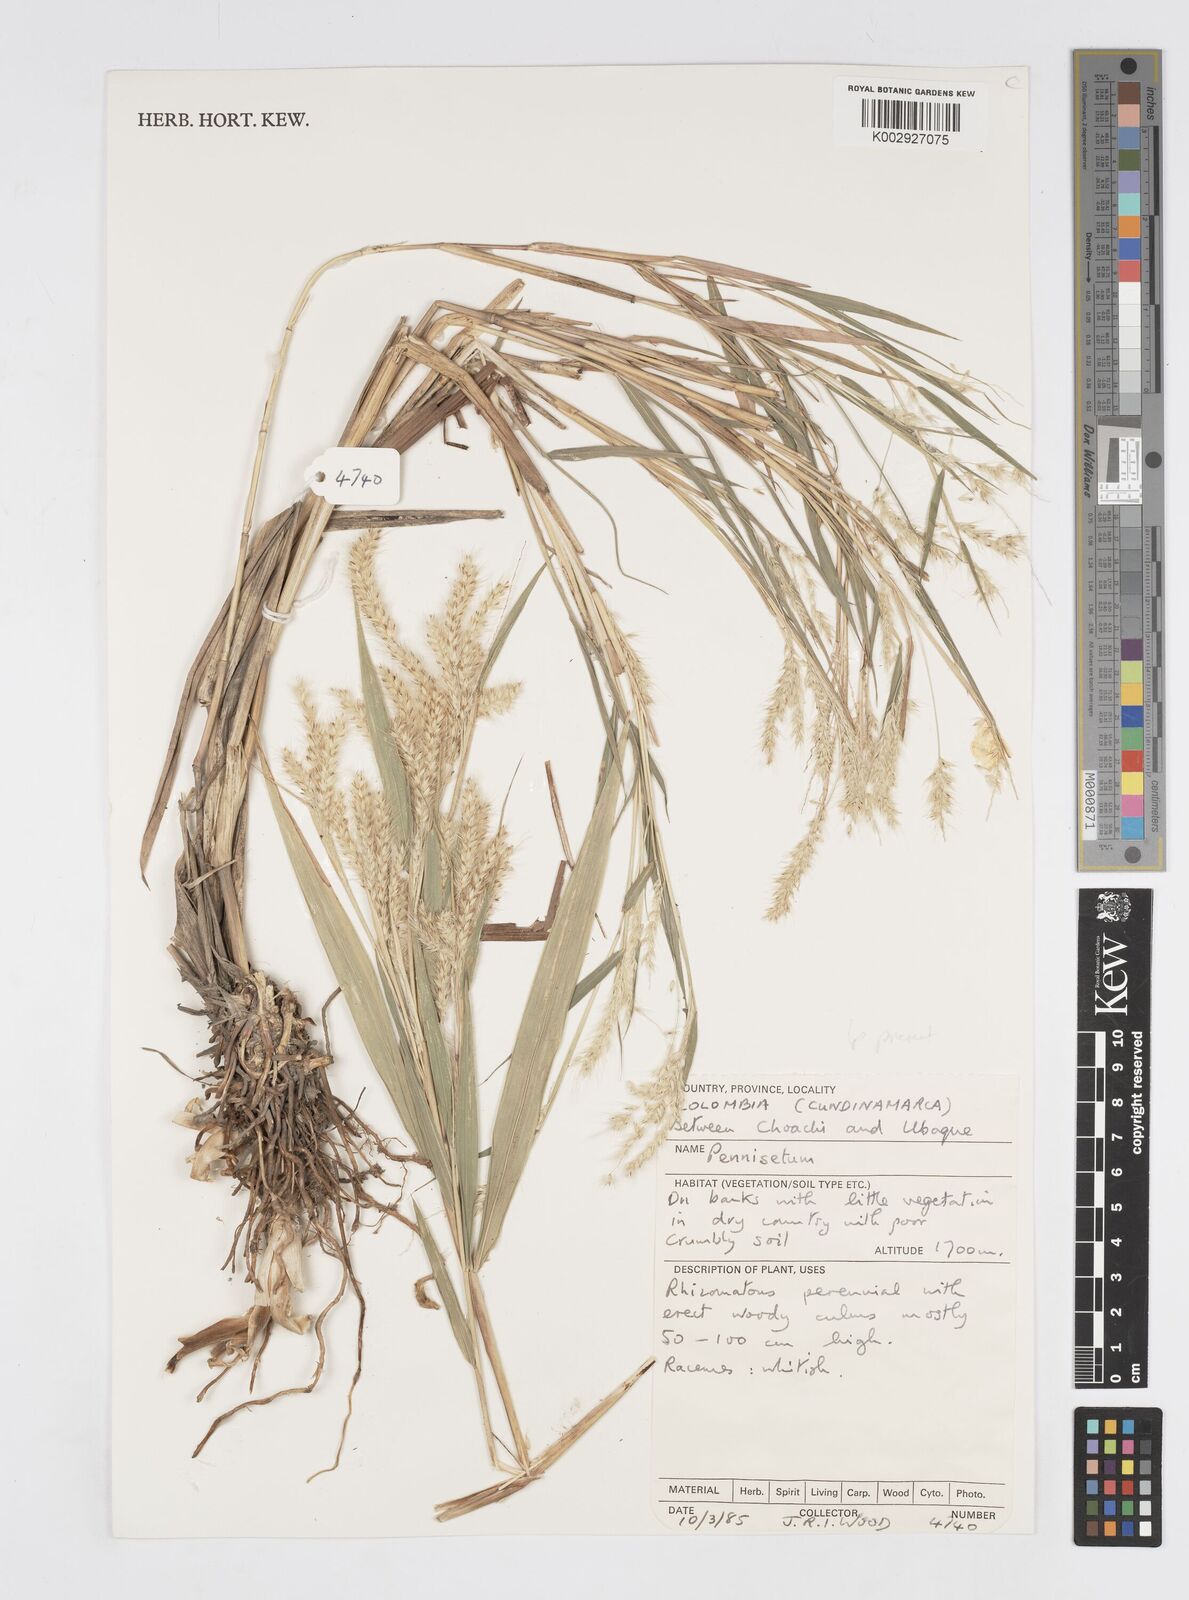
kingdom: Plantae
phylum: Tracheophyta
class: Liliopsida
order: Poales
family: Poaceae
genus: Cenchrus
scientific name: Cenchrus tristachyus
